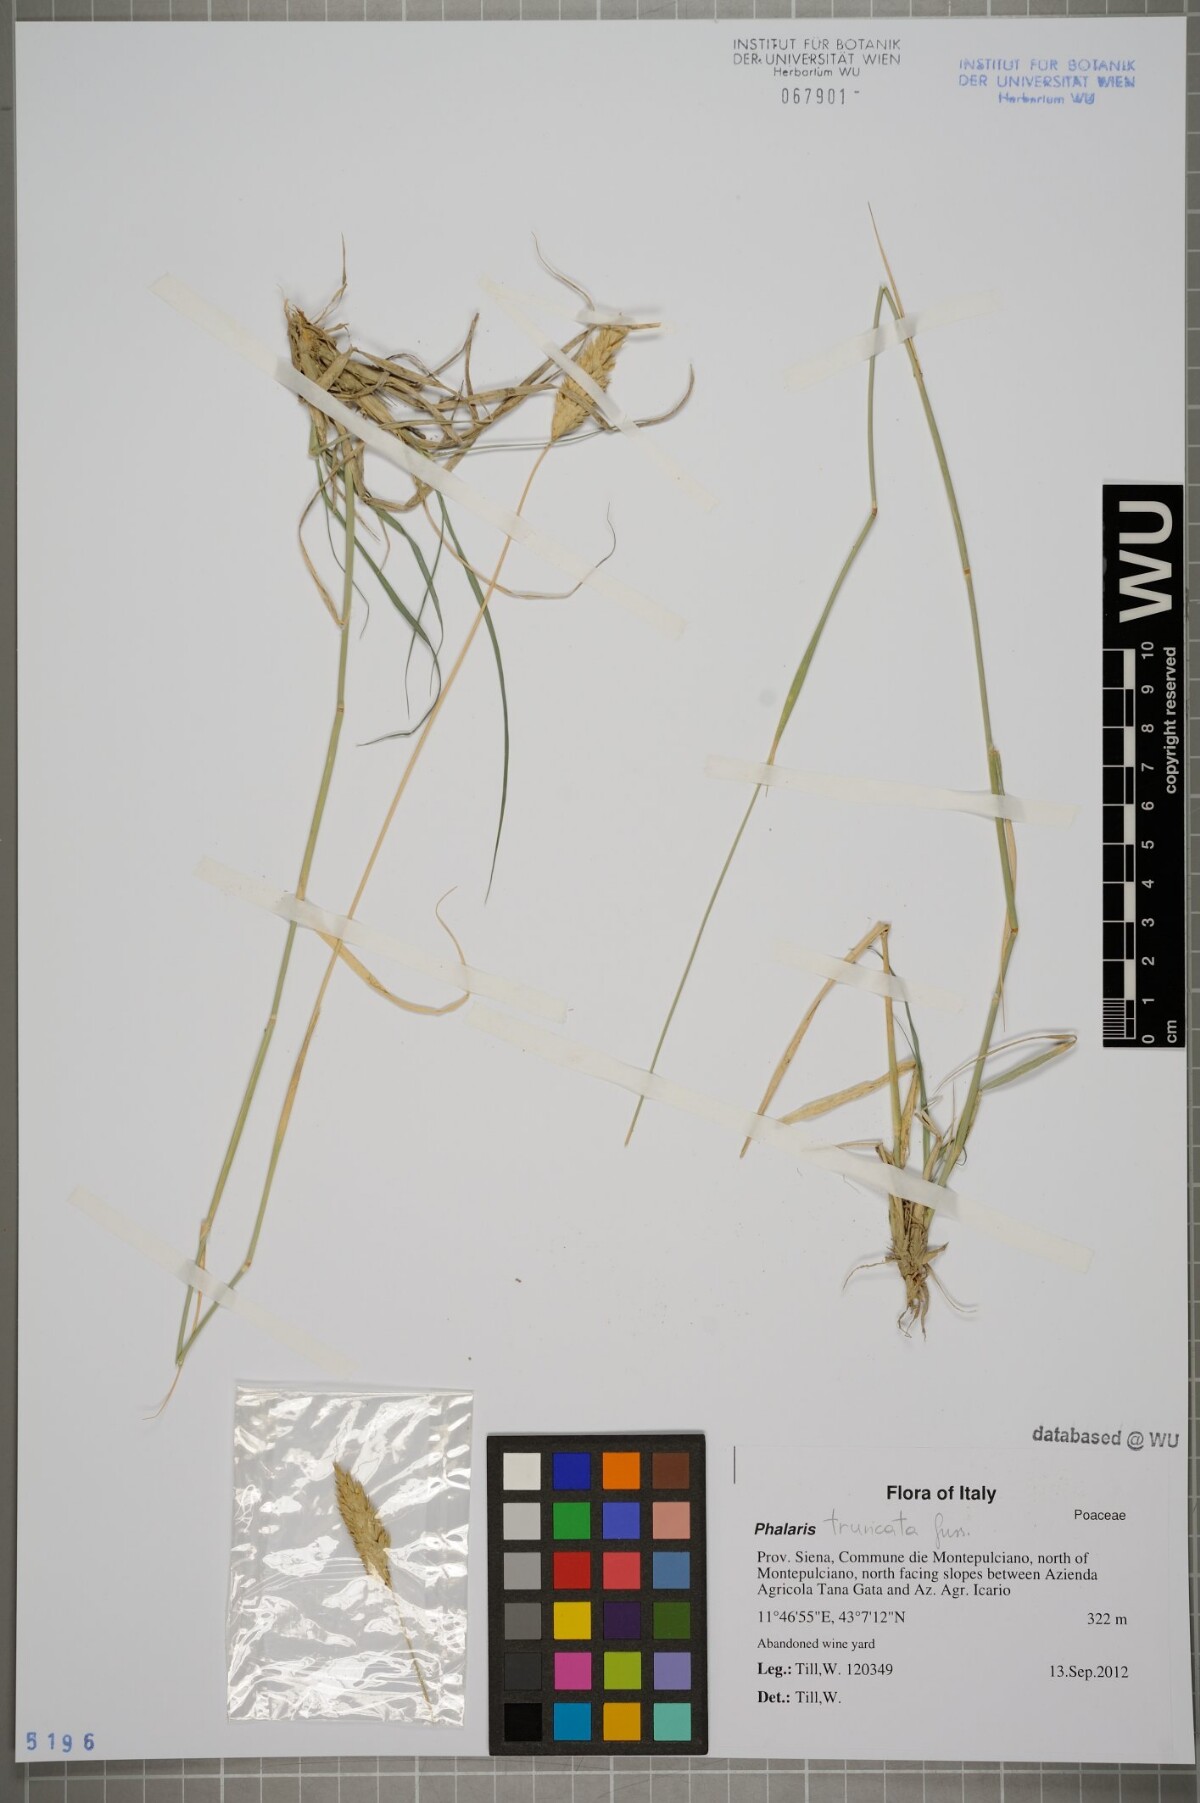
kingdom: Plantae
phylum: Tracheophyta
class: Liliopsida
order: Poales
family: Poaceae
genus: Phalaris
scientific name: Phalaris truncata
